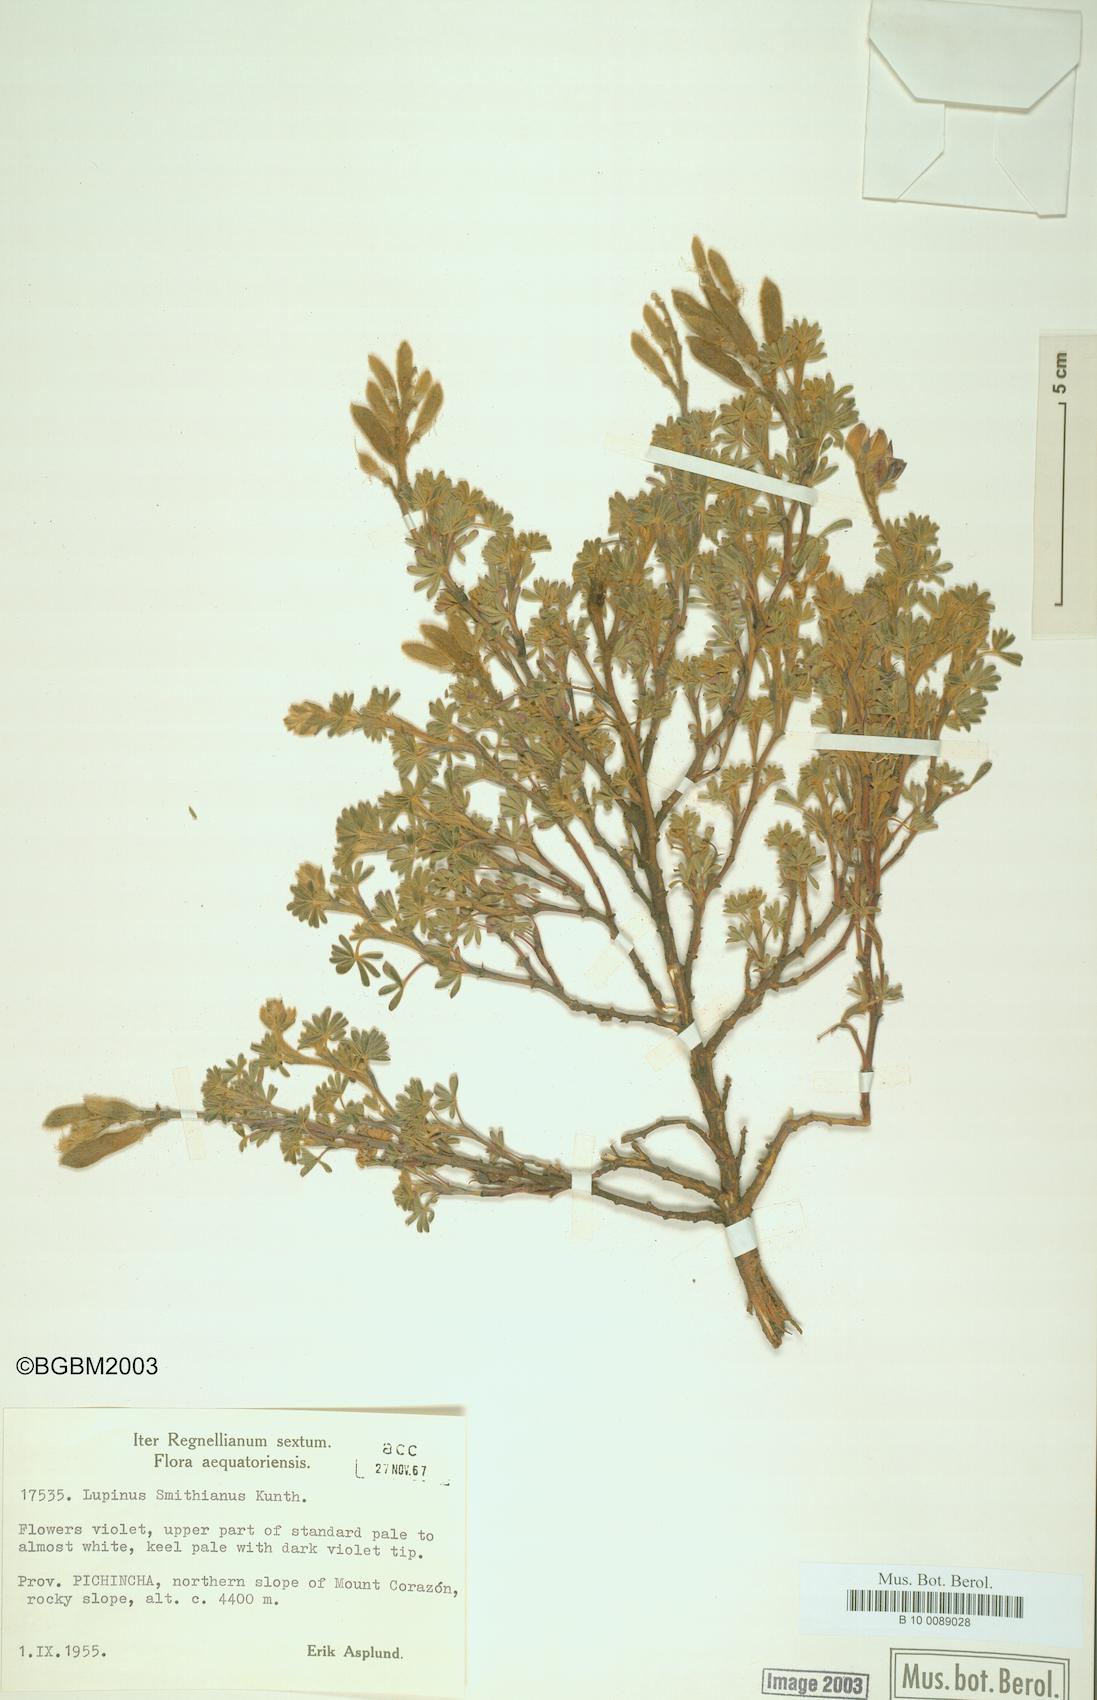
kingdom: Plantae
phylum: Tracheophyta
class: Magnoliopsida
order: Fabales
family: Fabaceae
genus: Lupinus
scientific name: Lupinus smithianus
